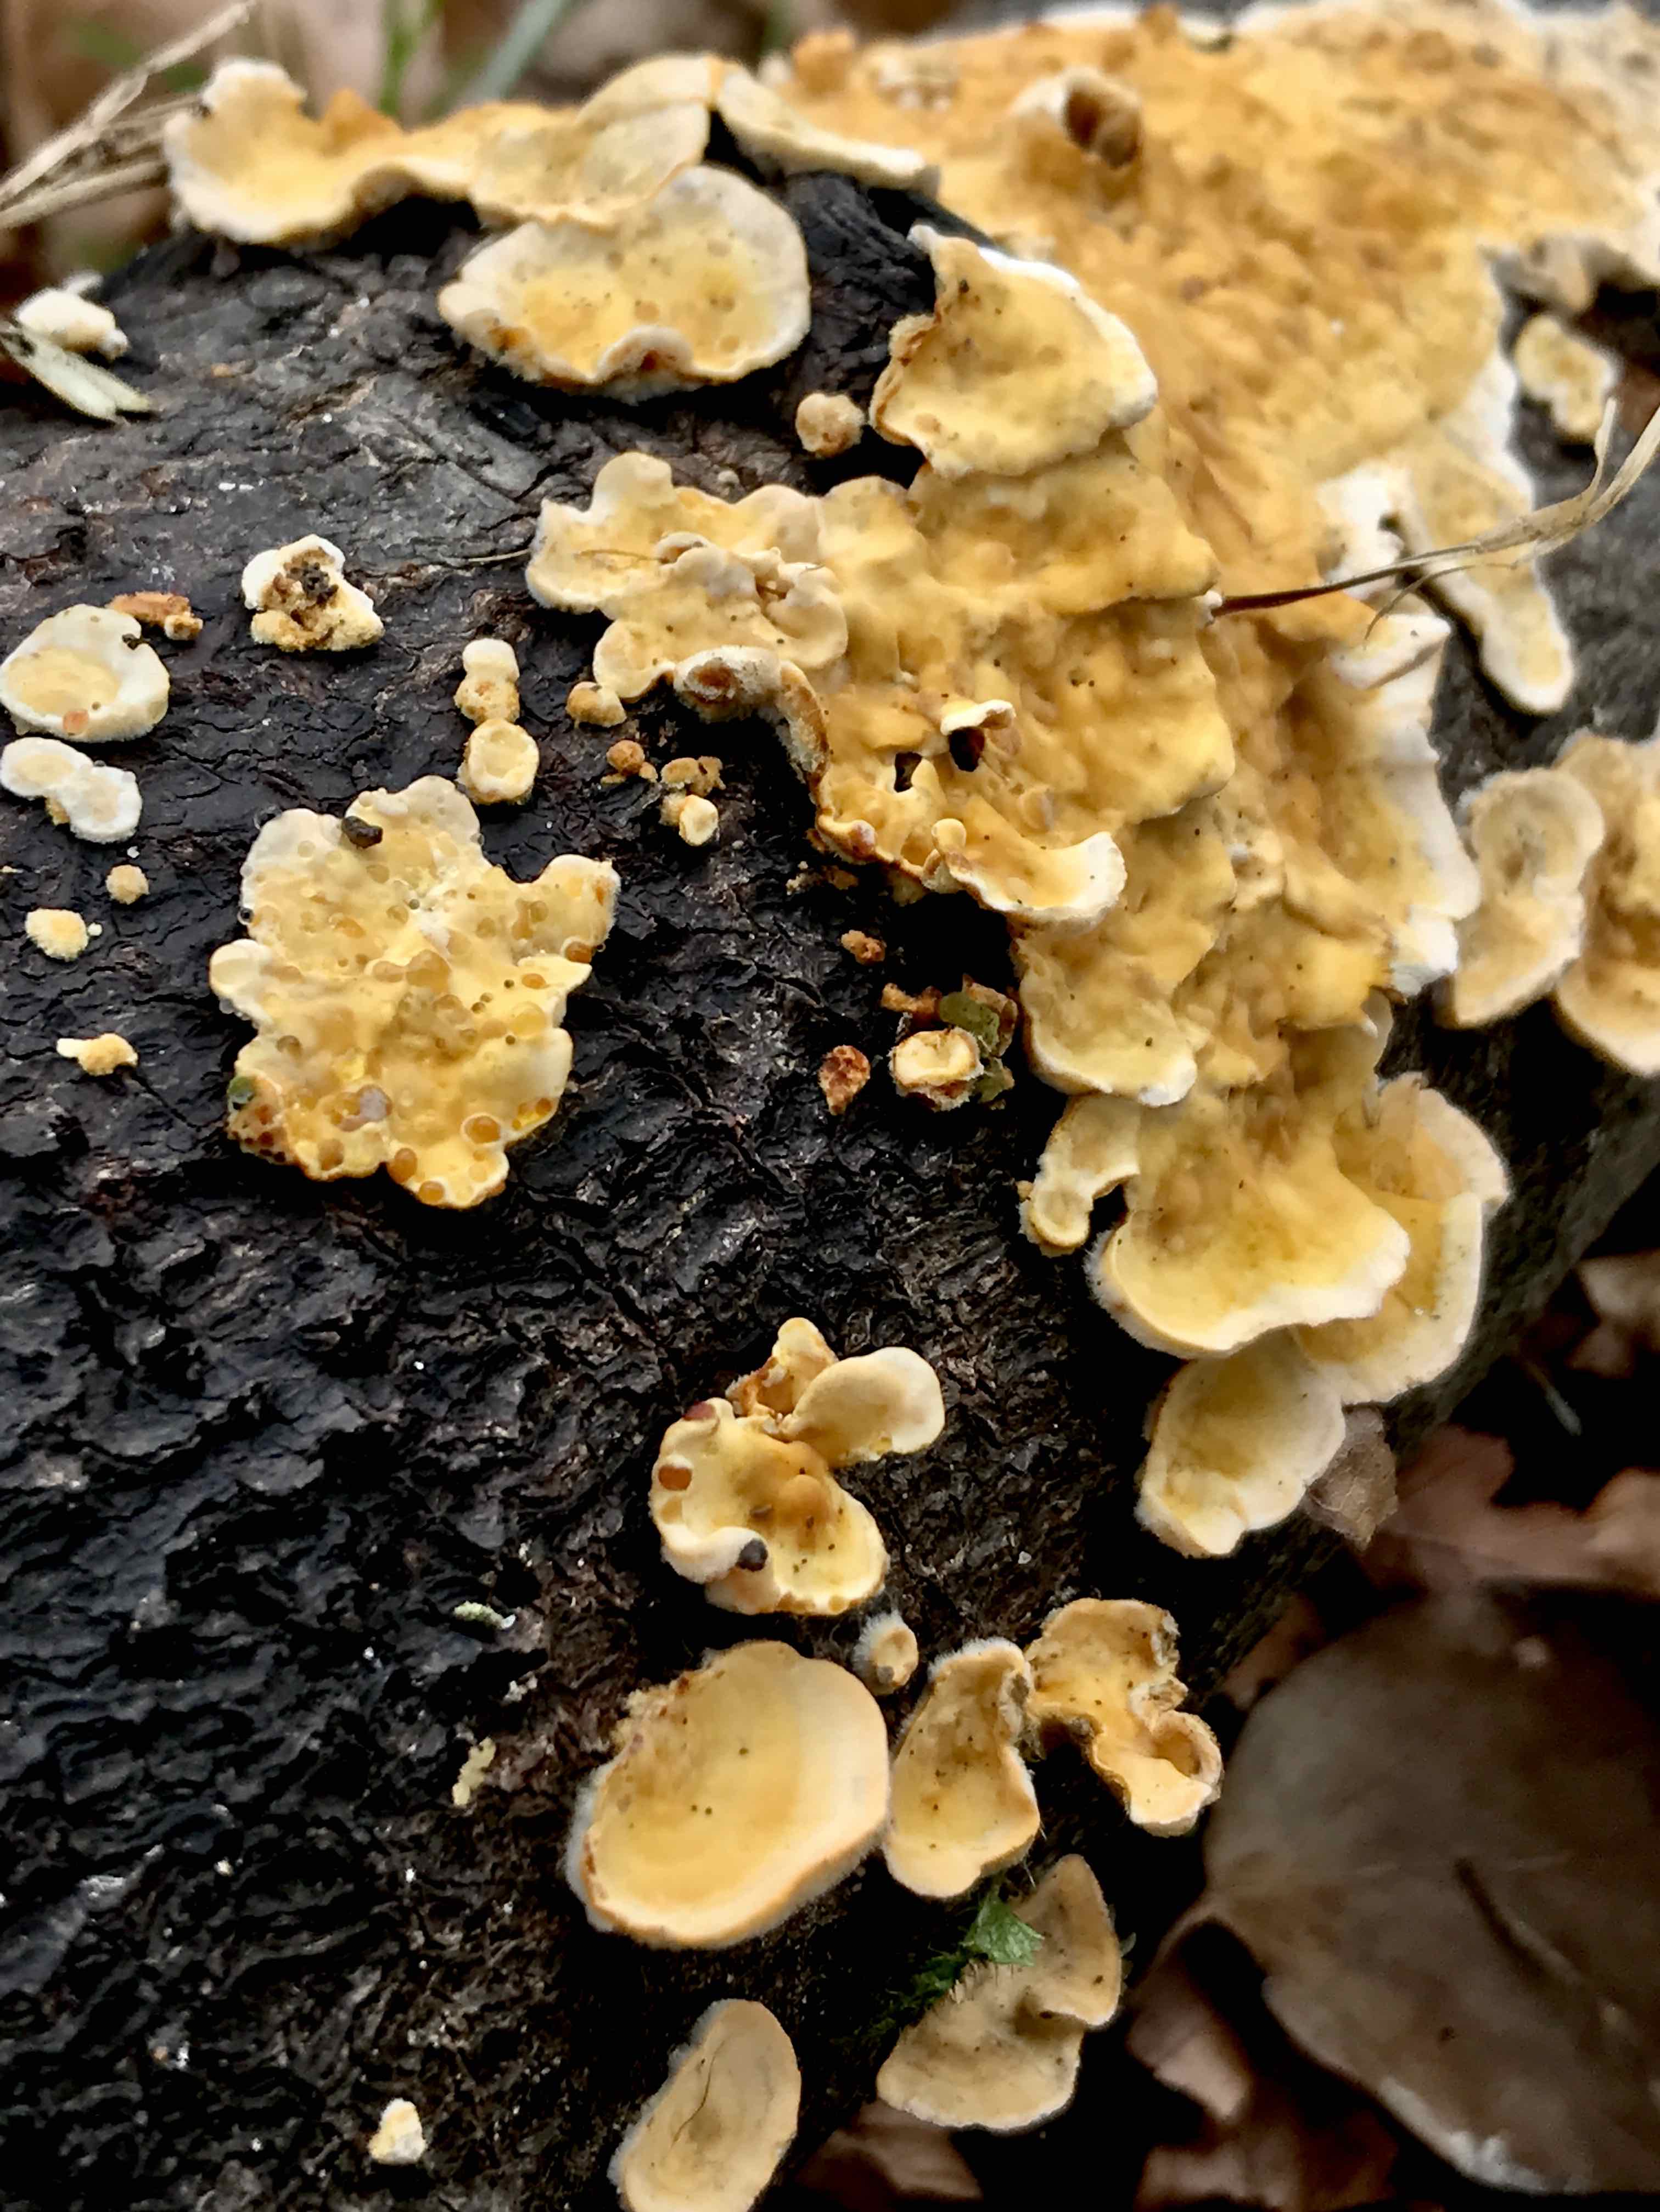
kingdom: Fungi
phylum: Basidiomycota
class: Agaricomycetes
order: Russulales
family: Stereaceae
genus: Stereum
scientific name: Stereum hirsutum
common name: håret lædersvamp
